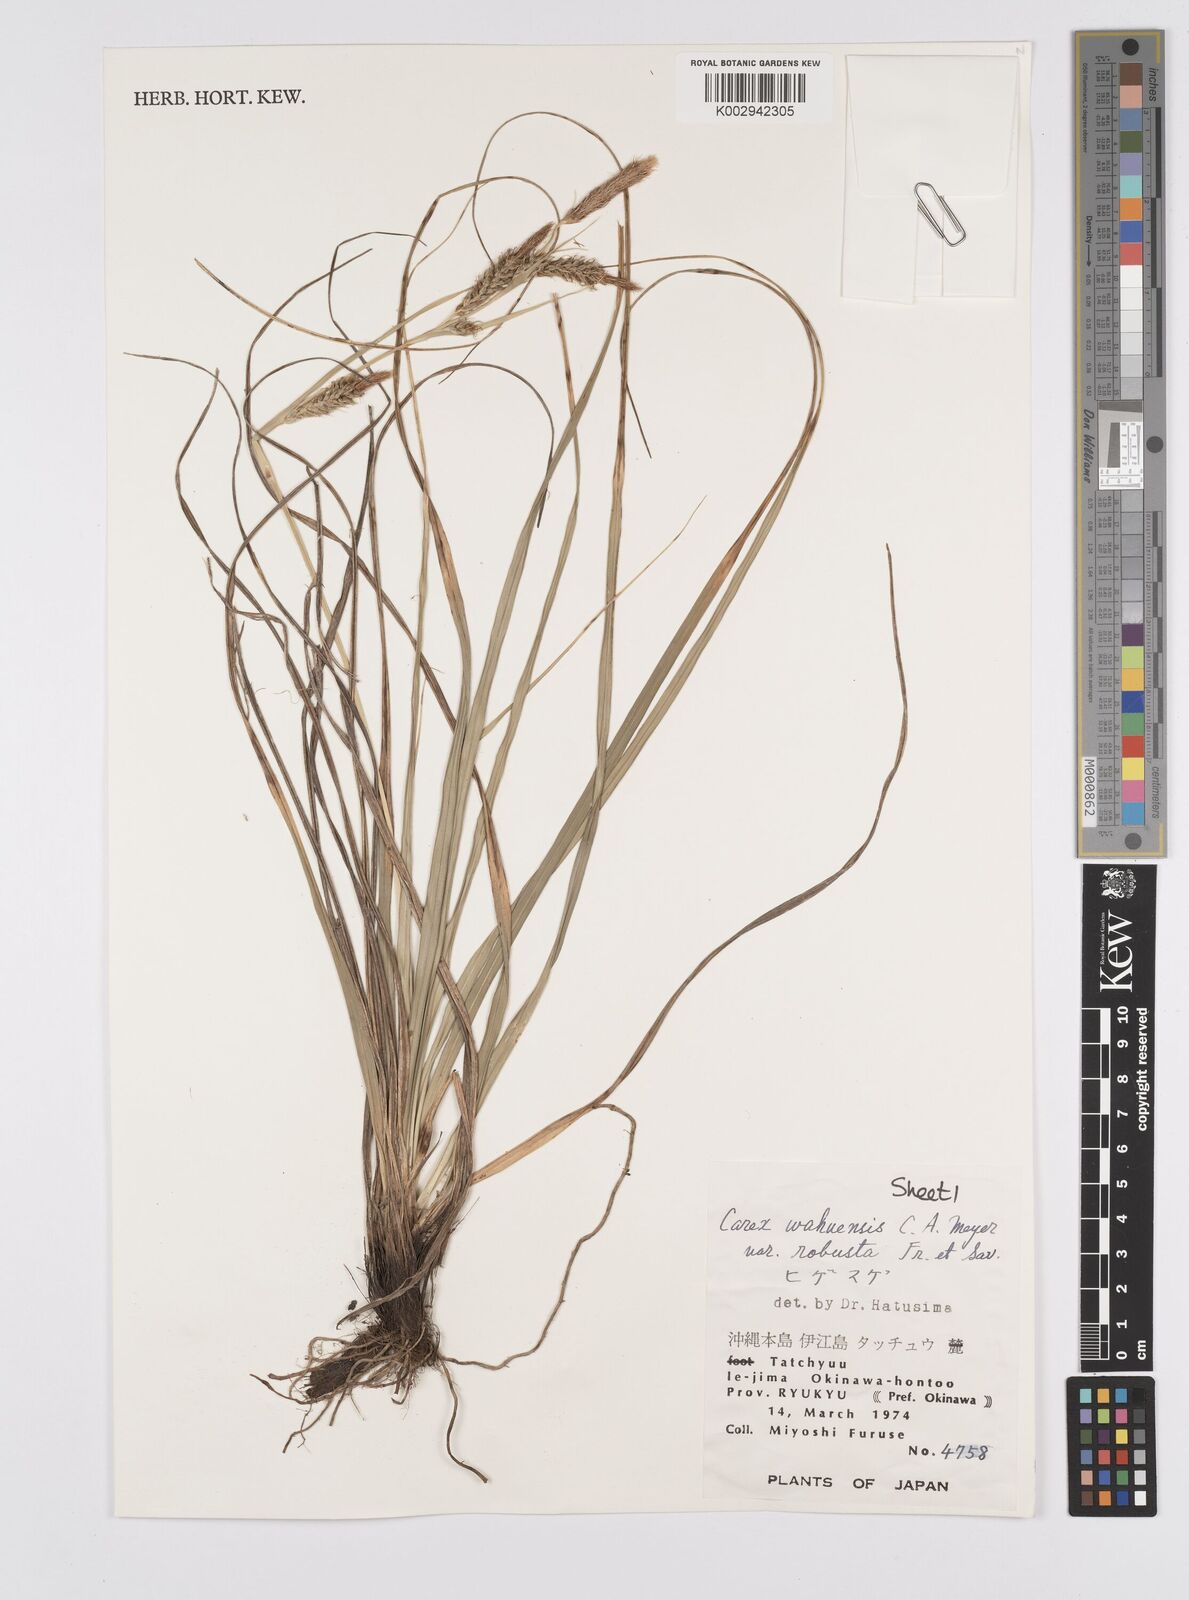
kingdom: Plantae
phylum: Tracheophyta
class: Liliopsida
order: Poales
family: Cyperaceae
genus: Carex
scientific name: Carex wahuensis
